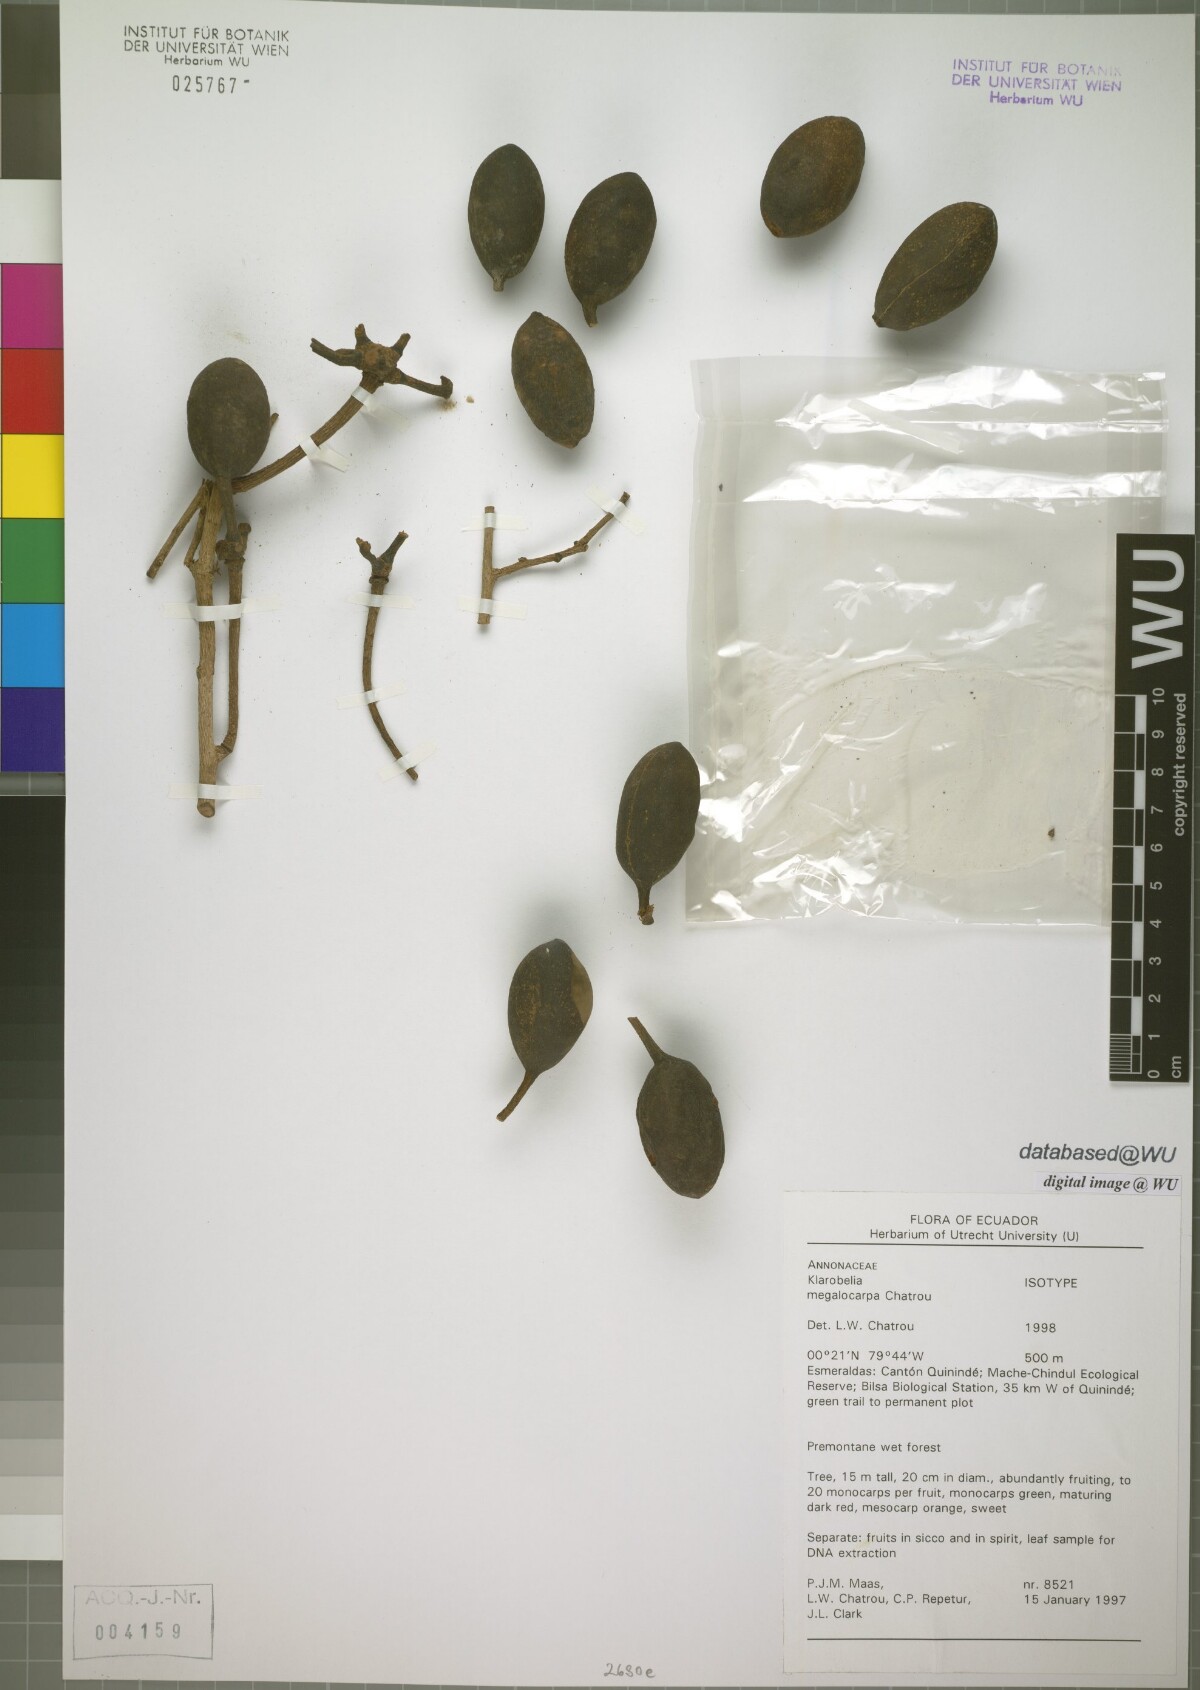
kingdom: Plantae
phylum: Tracheophyta
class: Magnoliopsida
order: Magnoliales
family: Annonaceae
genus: Klarobelia
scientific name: Klarobelia megalocarpa
